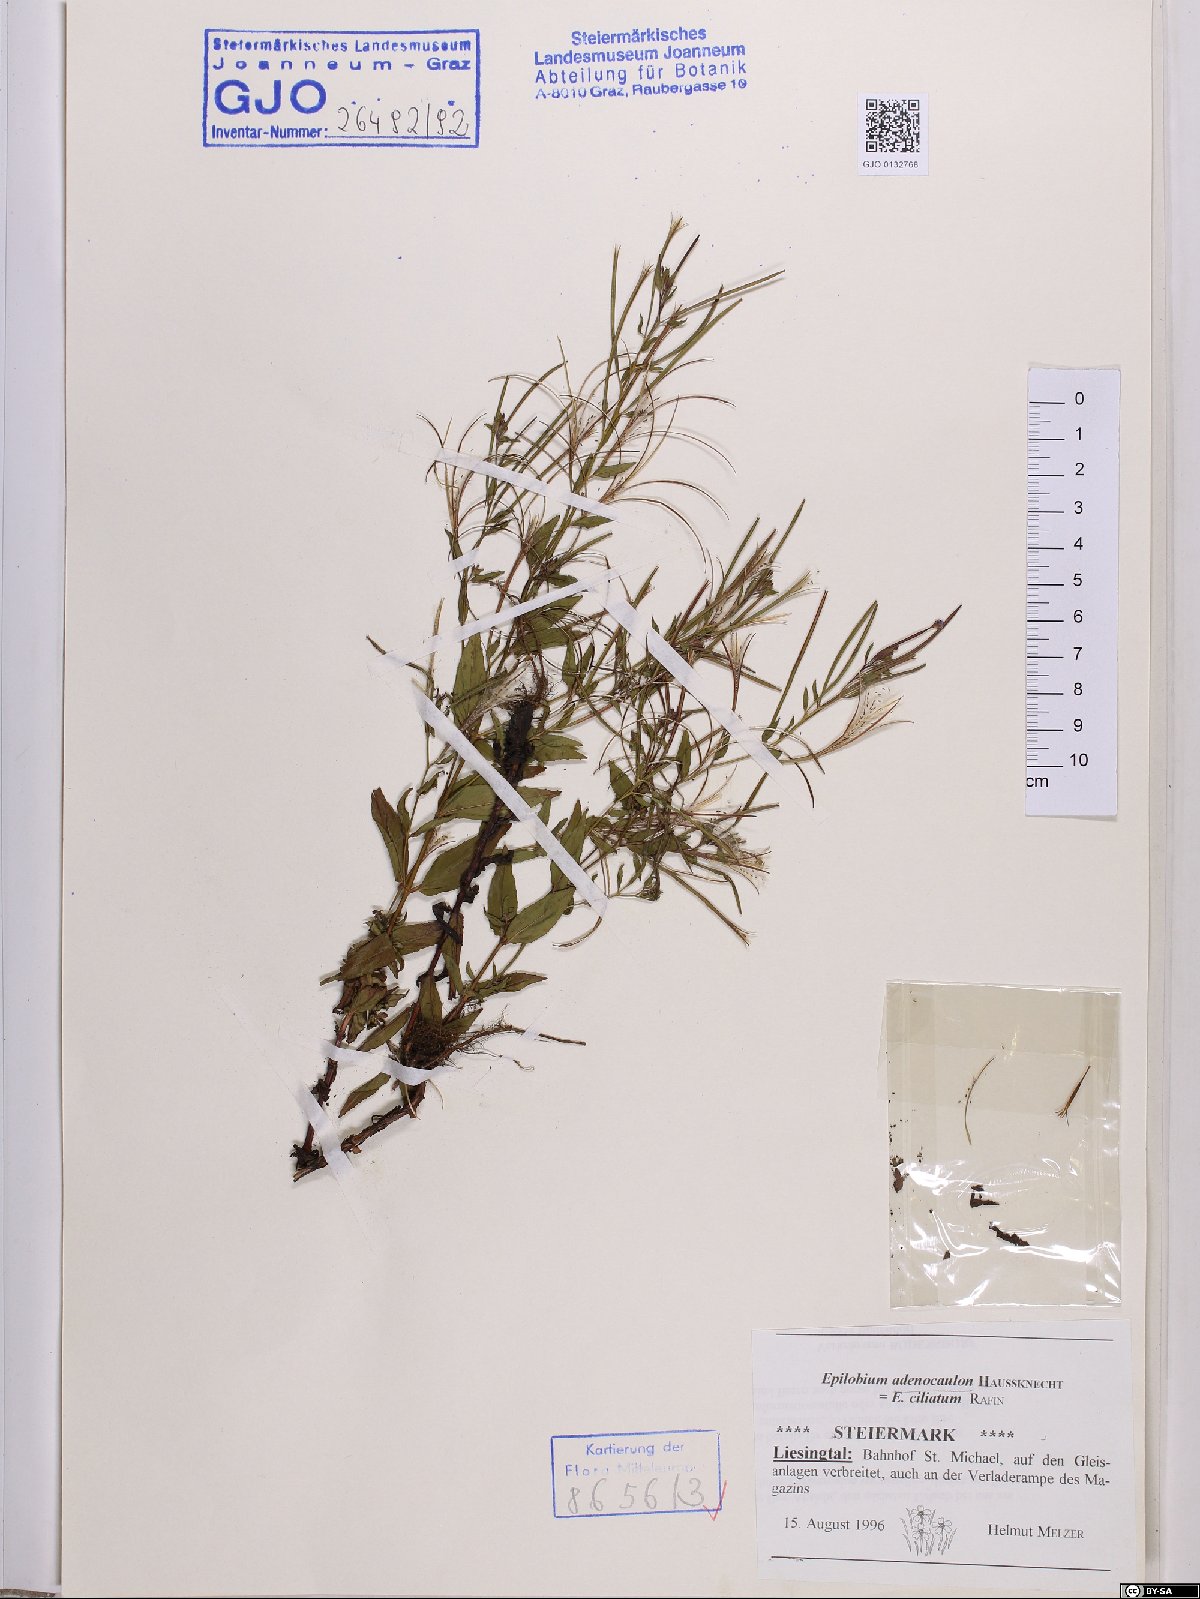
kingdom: Plantae
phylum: Tracheophyta
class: Magnoliopsida
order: Myrtales
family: Onagraceae
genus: Epilobium
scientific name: Epilobium ciliatum
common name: American willowherb
